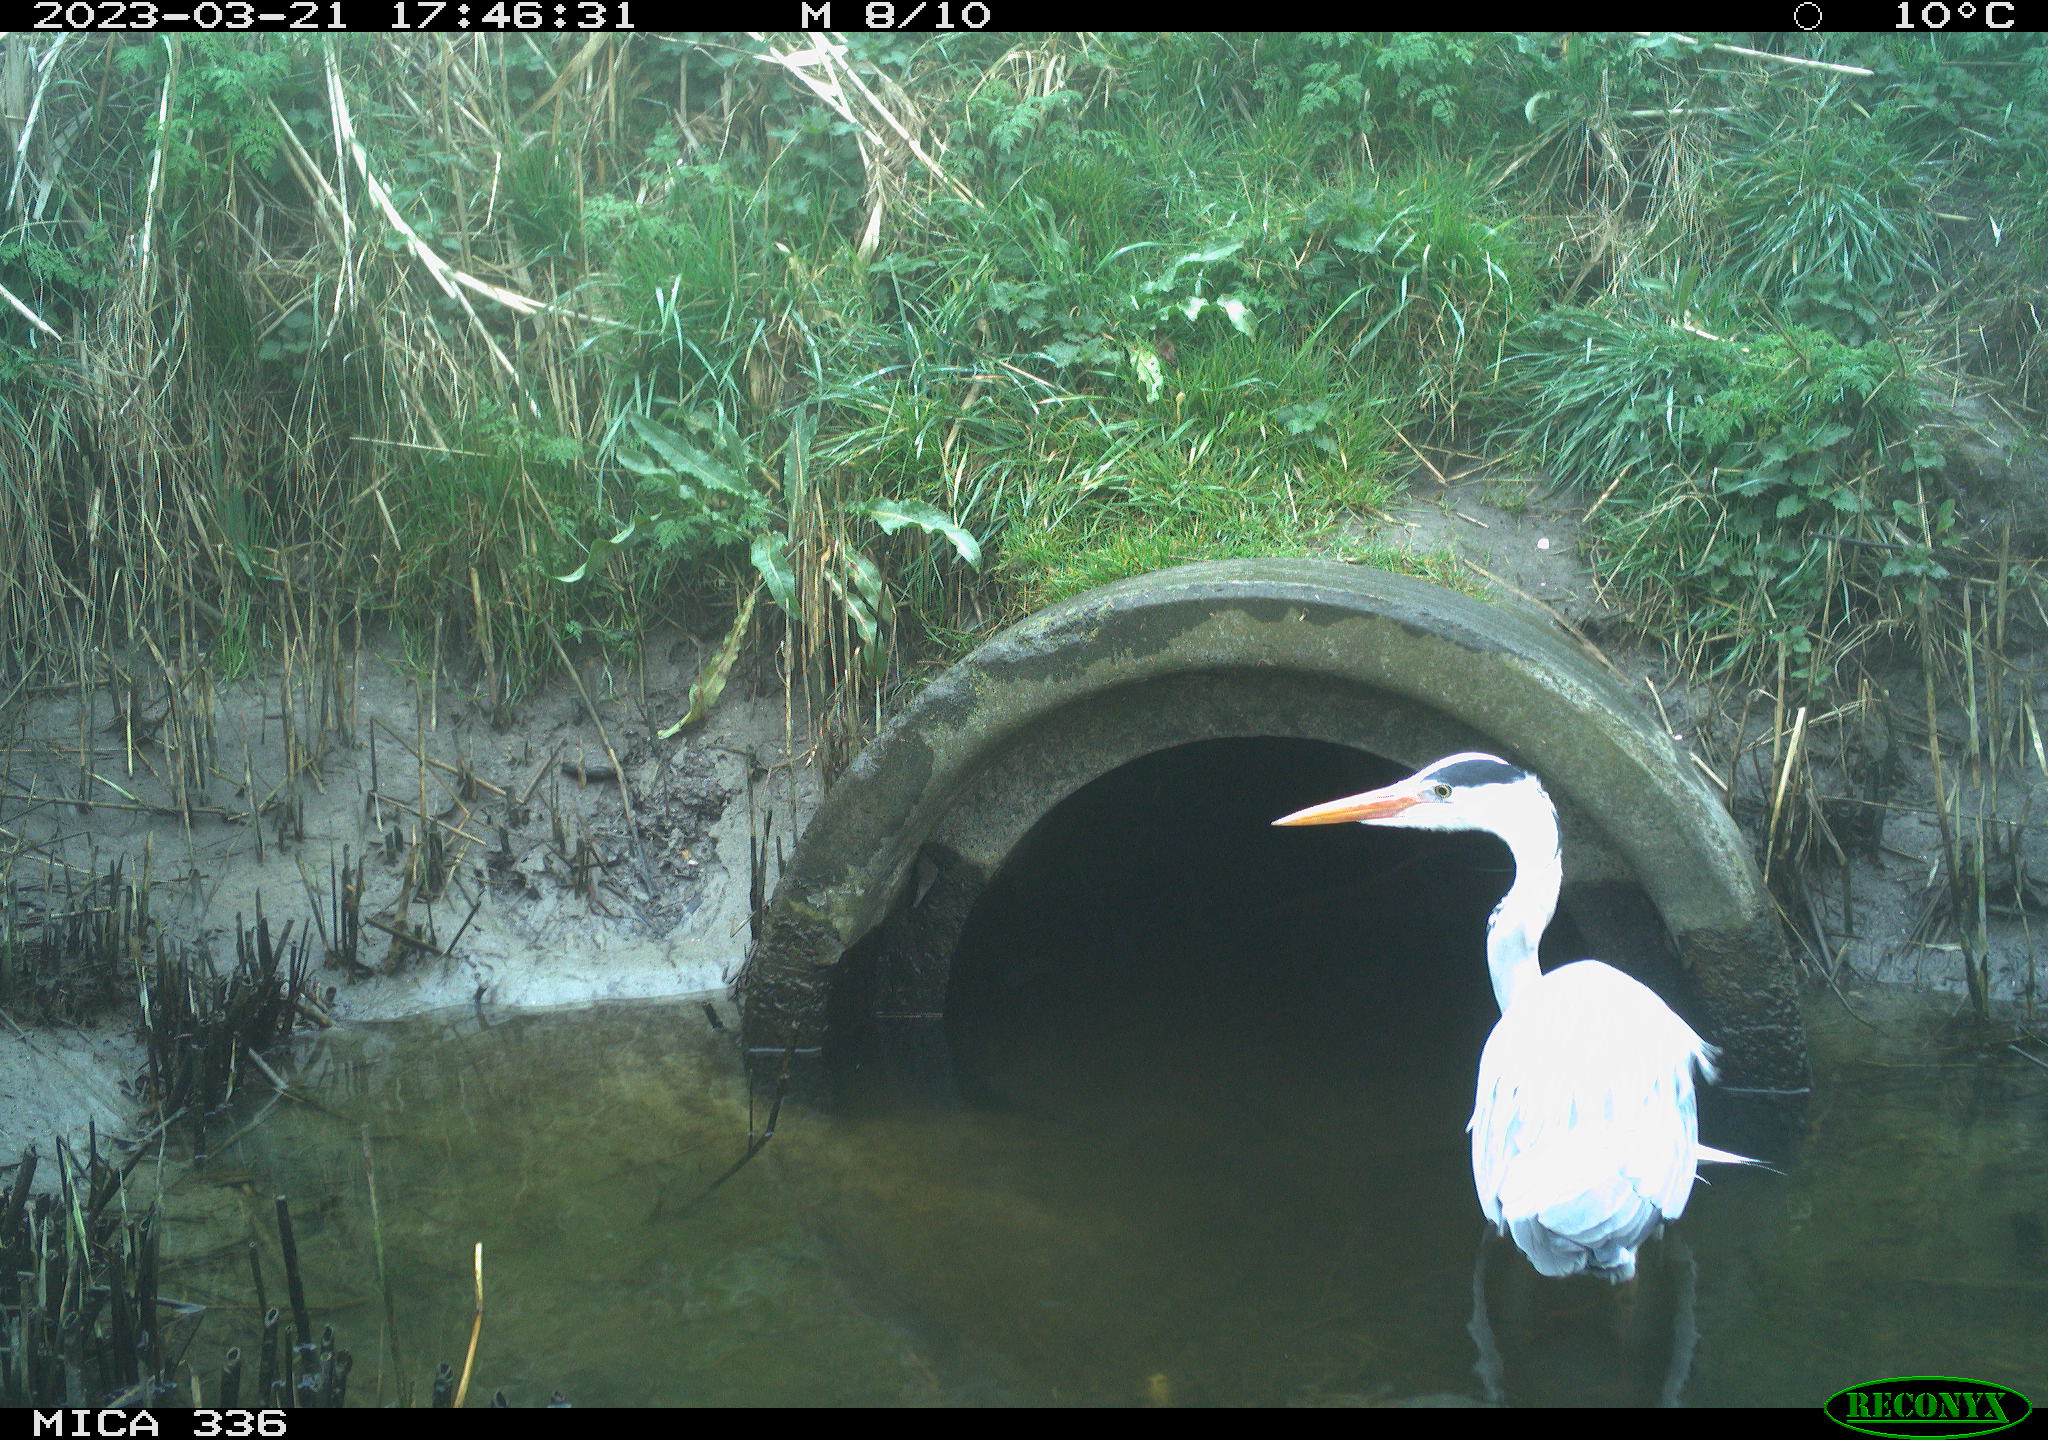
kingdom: Animalia
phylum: Chordata
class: Aves
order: Pelecaniformes
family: Ardeidae
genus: Ardea
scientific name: Ardea cinerea
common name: Grey heron
